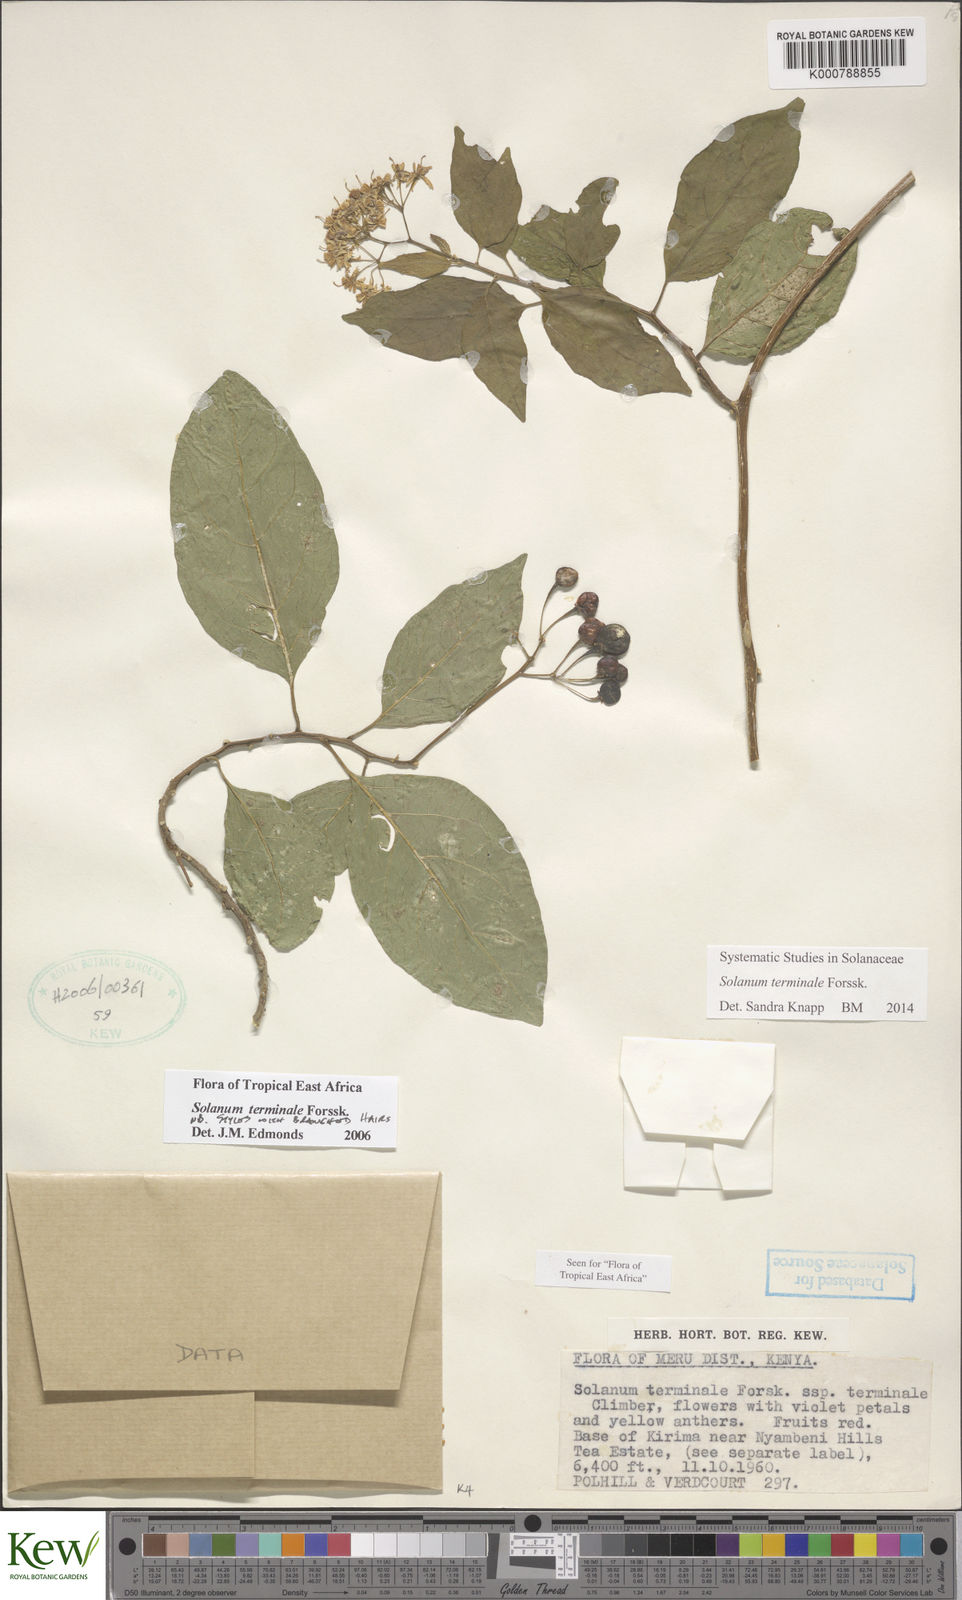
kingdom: Plantae
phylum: Tracheophyta
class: Magnoliopsida
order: Solanales
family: Solanaceae
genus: Solanum
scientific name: Solanum terminale
